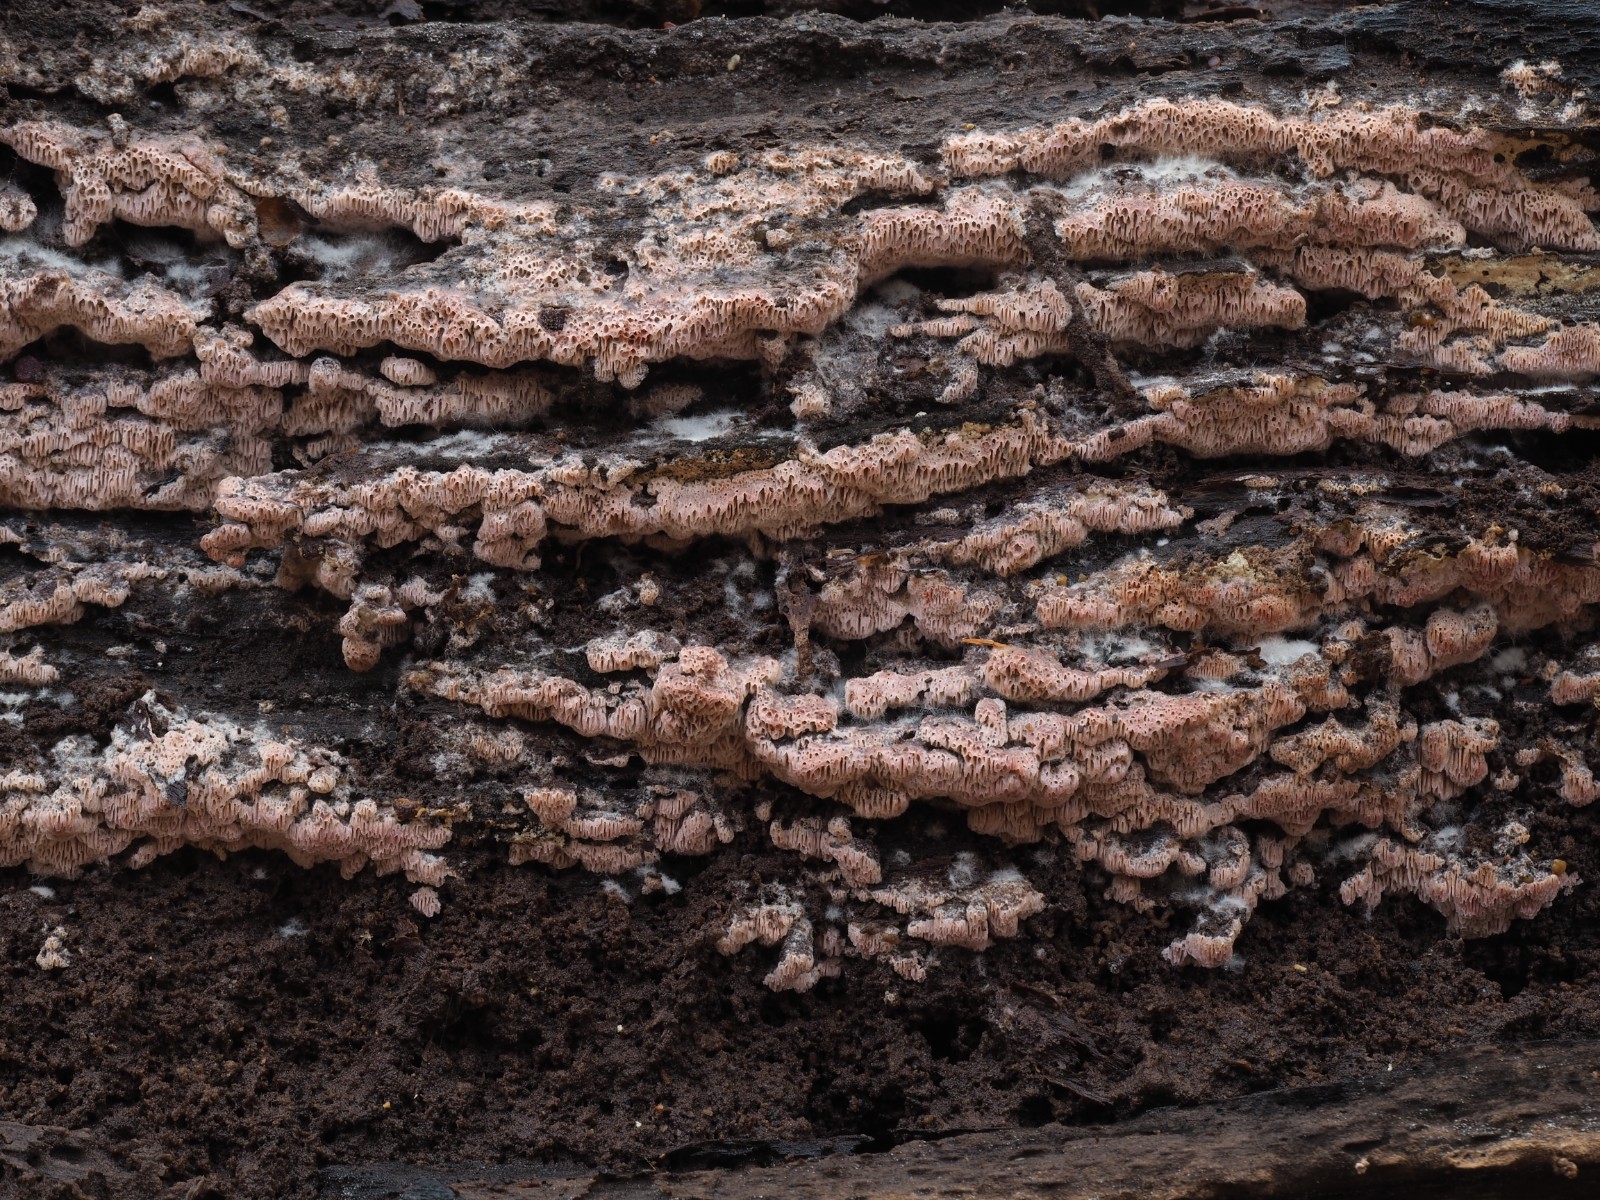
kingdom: Fungi
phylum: Basidiomycota
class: Agaricomycetes
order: Polyporales
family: Irpicaceae
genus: Ceriporia
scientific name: Ceriporia excelsa
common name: lilla voksporesvamp
